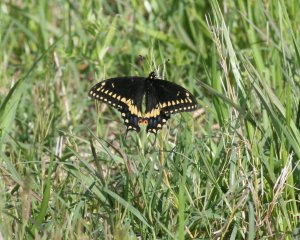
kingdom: Animalia
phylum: Arthropoda
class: Insecta
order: Lepidoptera
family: Papilionidae
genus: Papilio
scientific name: Papilio polyxenes
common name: Black Swallowtail
